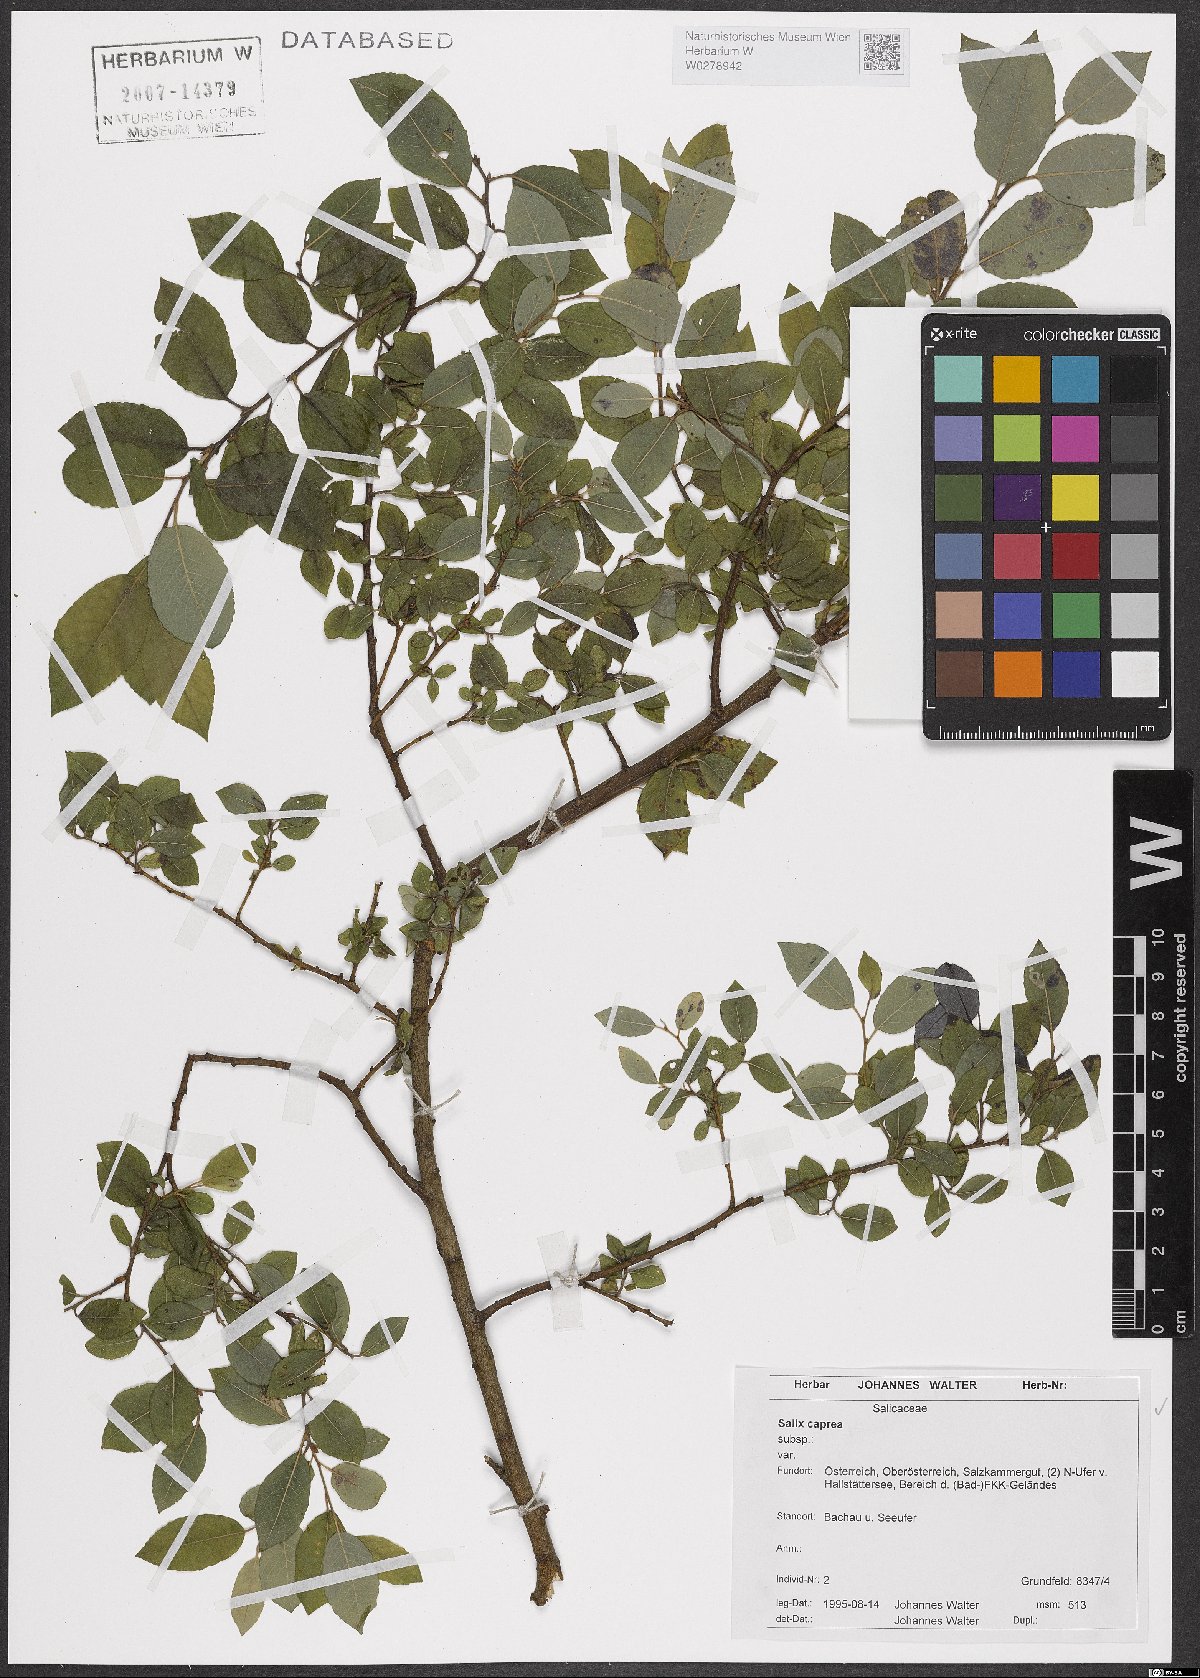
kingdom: Plantae
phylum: Tracheophyta
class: Magnoliopsida
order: Malpighiales
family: Salicaceae
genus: Salix
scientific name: Salix caprea
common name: Goat willow
